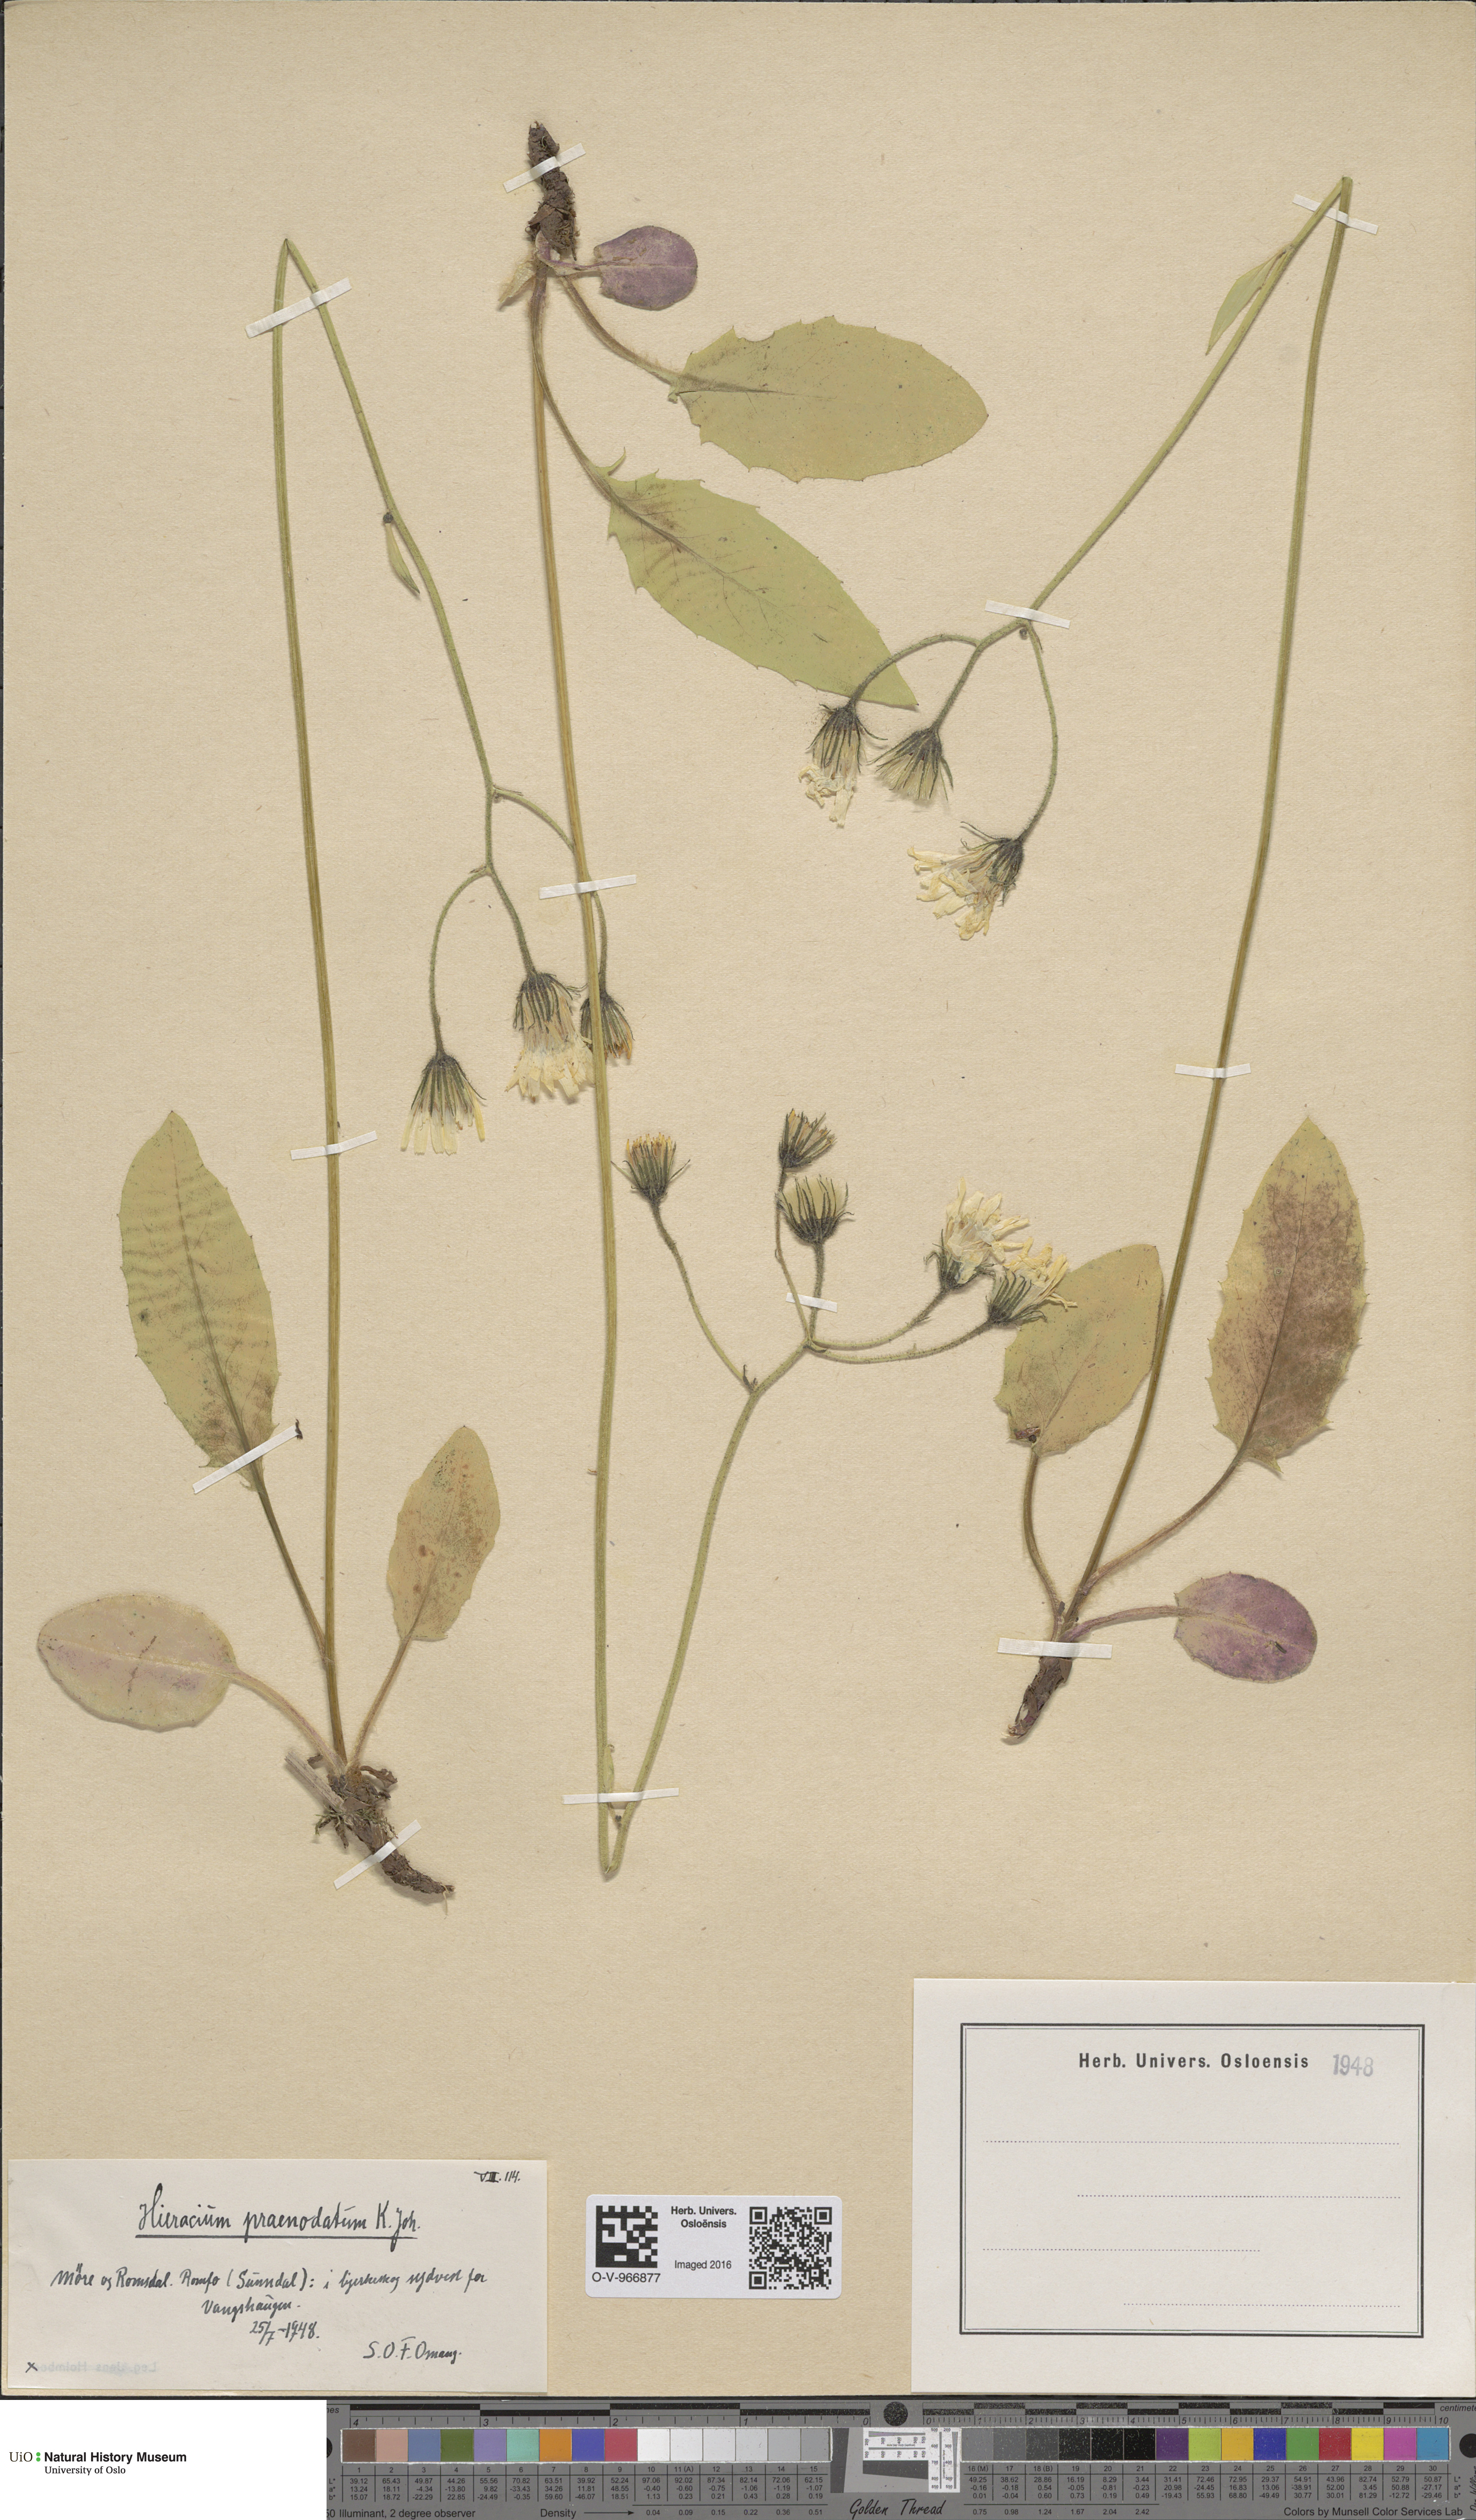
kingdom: Plantae
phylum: Tracheophyta
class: Magnoliopsida
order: Asterales
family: Asteraceae
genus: Hieracium
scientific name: Hieracium praenodatum
